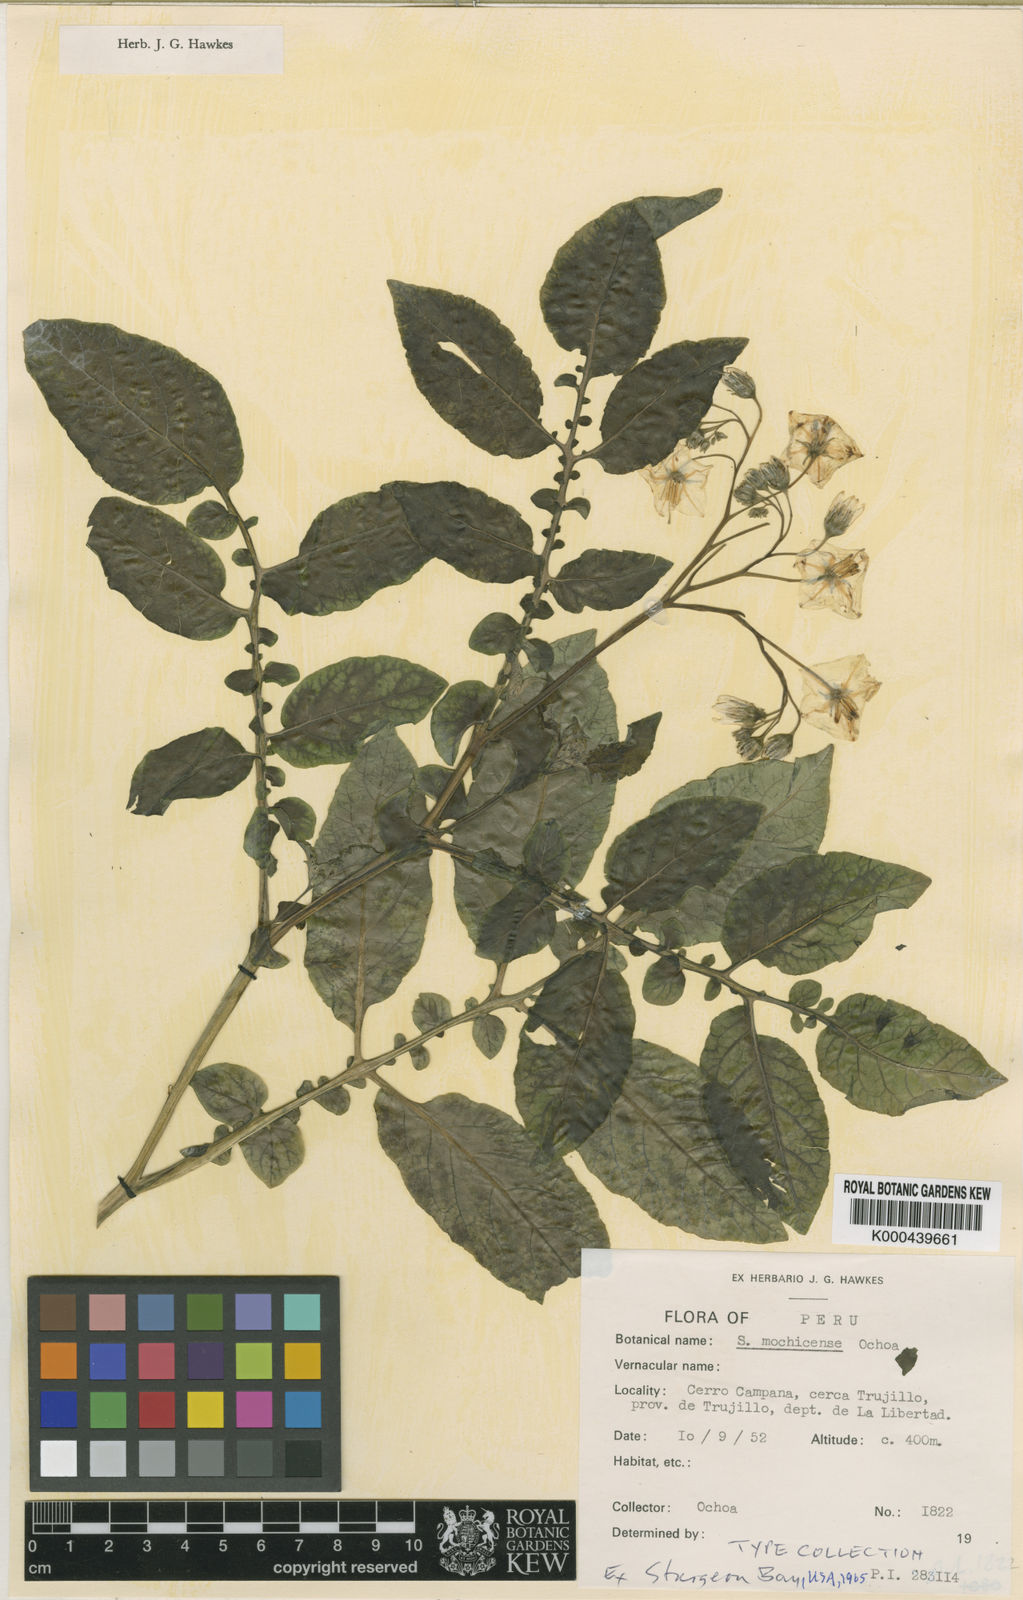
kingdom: Plantae
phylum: Tracheophyta
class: Magnoliopsida
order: Solanales
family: Solanaceae
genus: Solanum
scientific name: Solanum mochiquense
